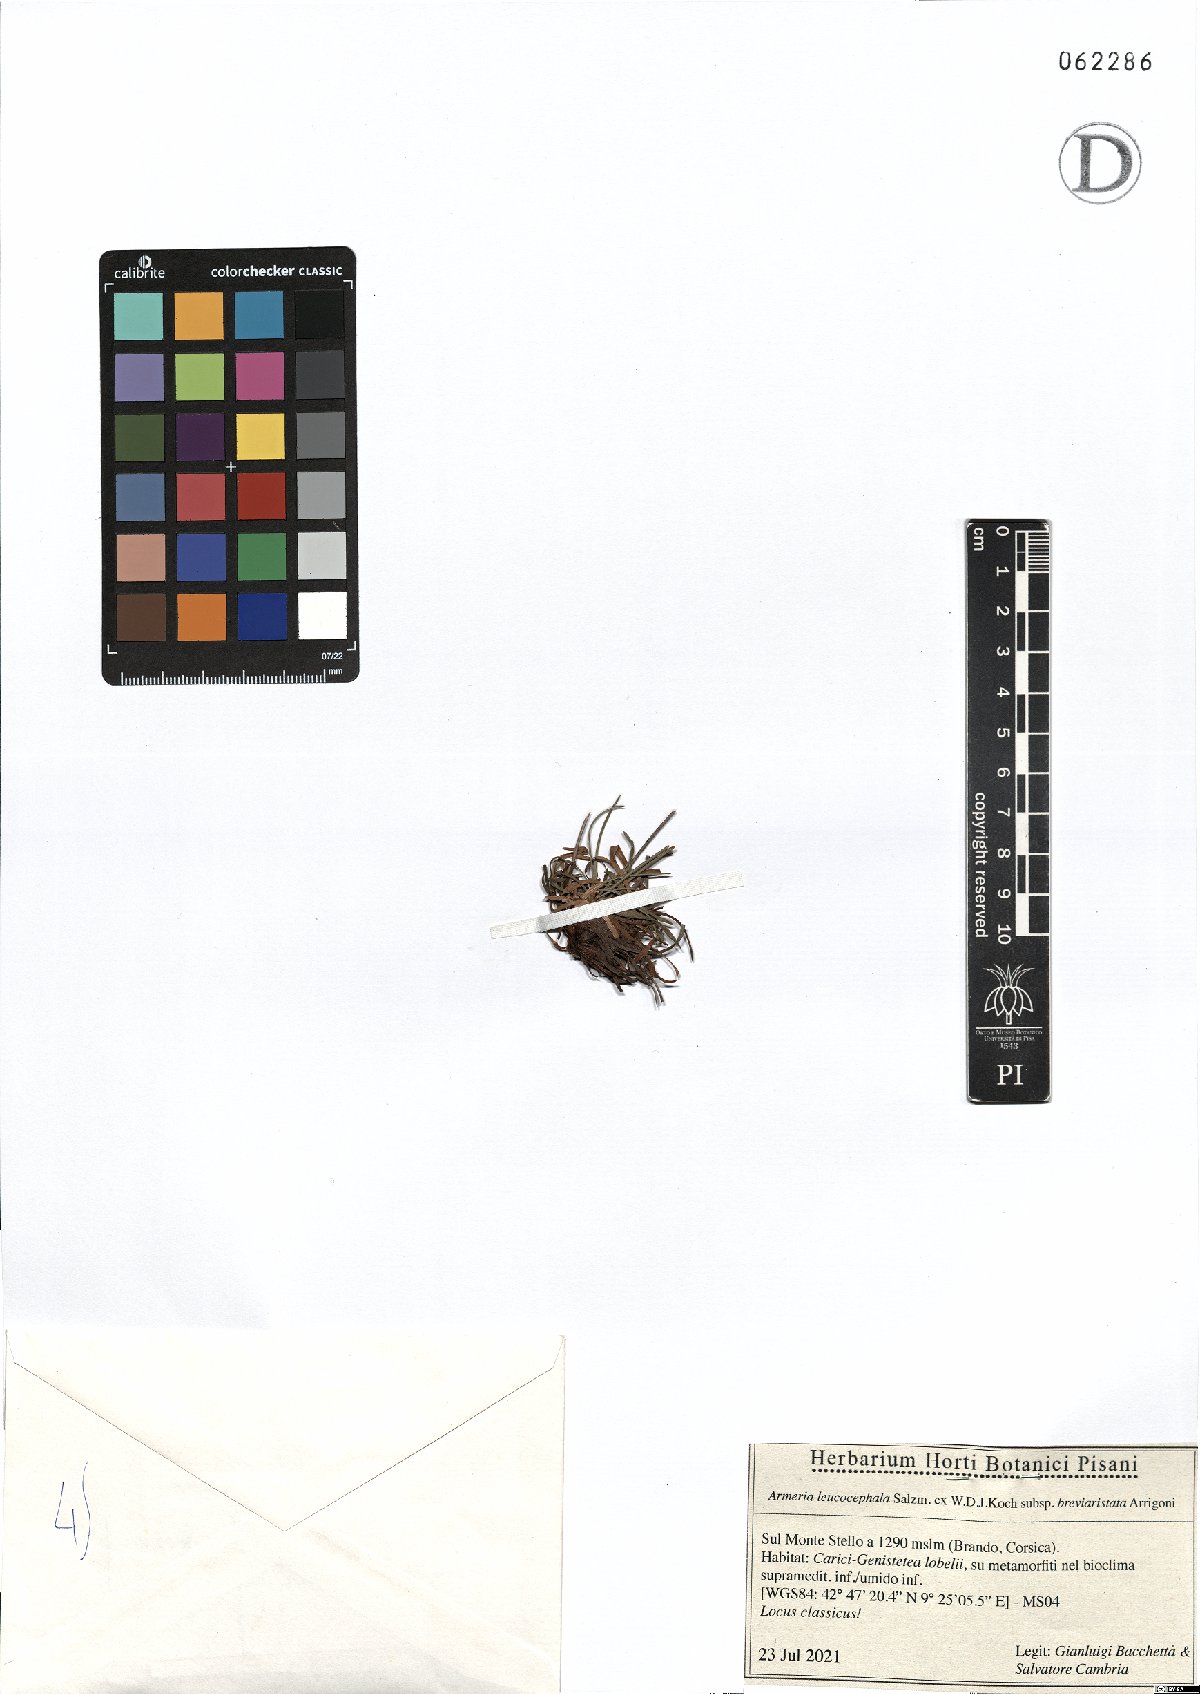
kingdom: Plantae
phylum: Tracheophyta
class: Magnoliopsida
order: Caryophyllales
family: Plumbaginaceae
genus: Armeria
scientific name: Armeria leucocephala
